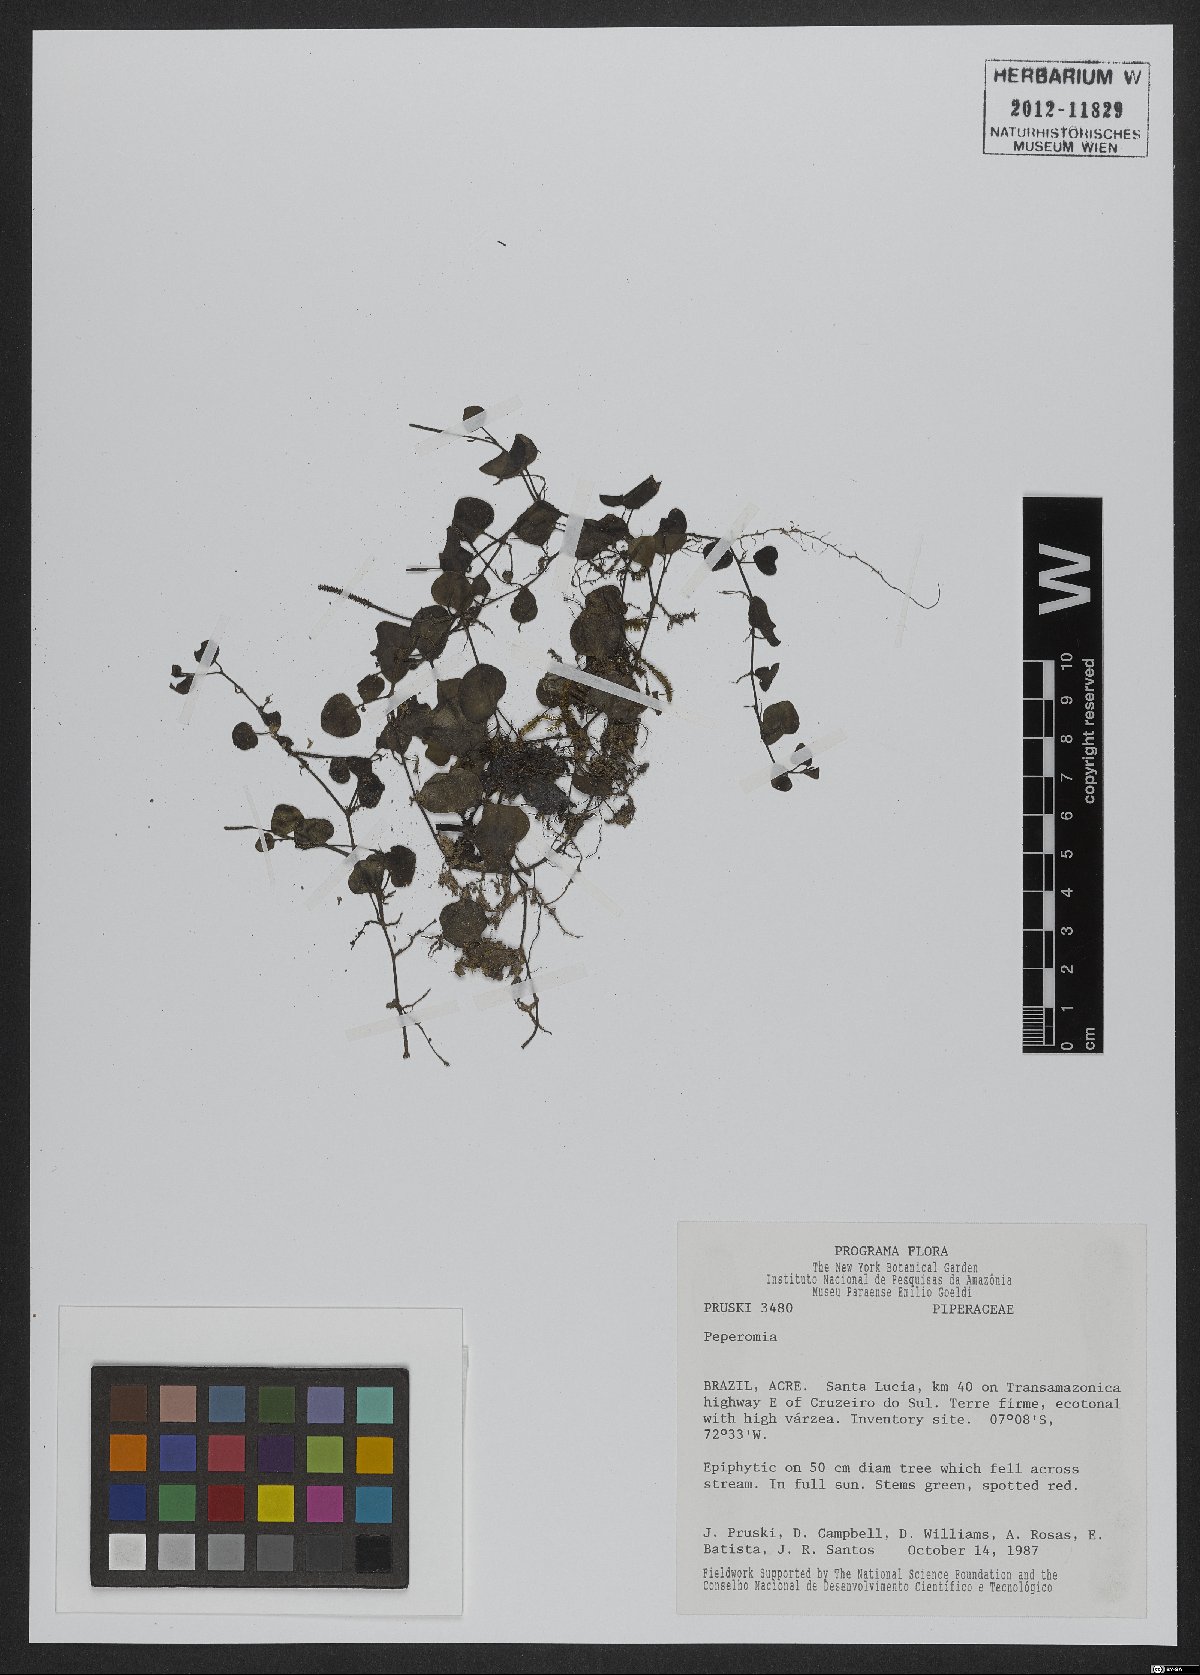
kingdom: Plantae
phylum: Tracheophyta
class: Magnoliopsida
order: Piperales
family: Piperaceae
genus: Peperomia
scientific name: Peperomia
